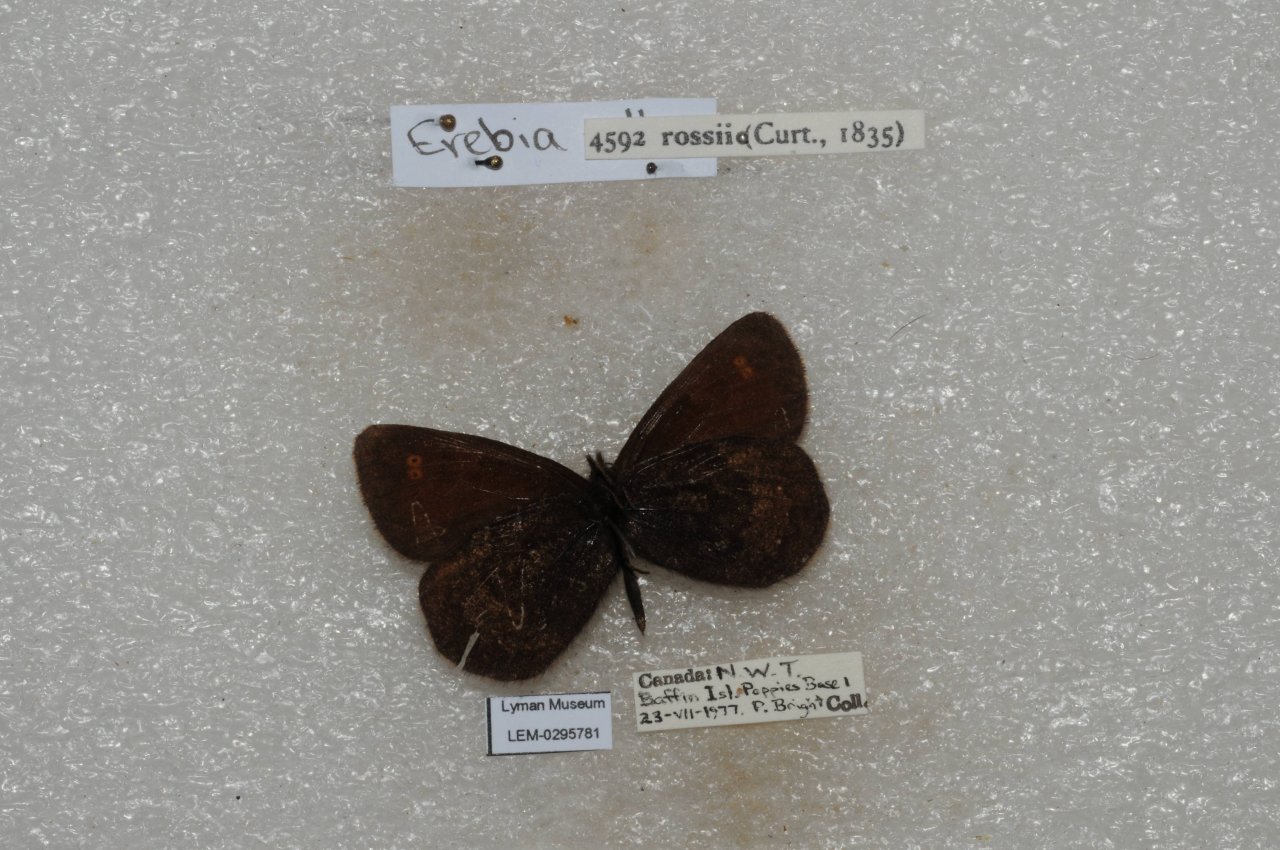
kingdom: Animalia
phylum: Arthropoda
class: Insecta
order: Lepidoptera
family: Nymphalidae
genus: Erebia
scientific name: Erebia rossii
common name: Ross's Alpine
